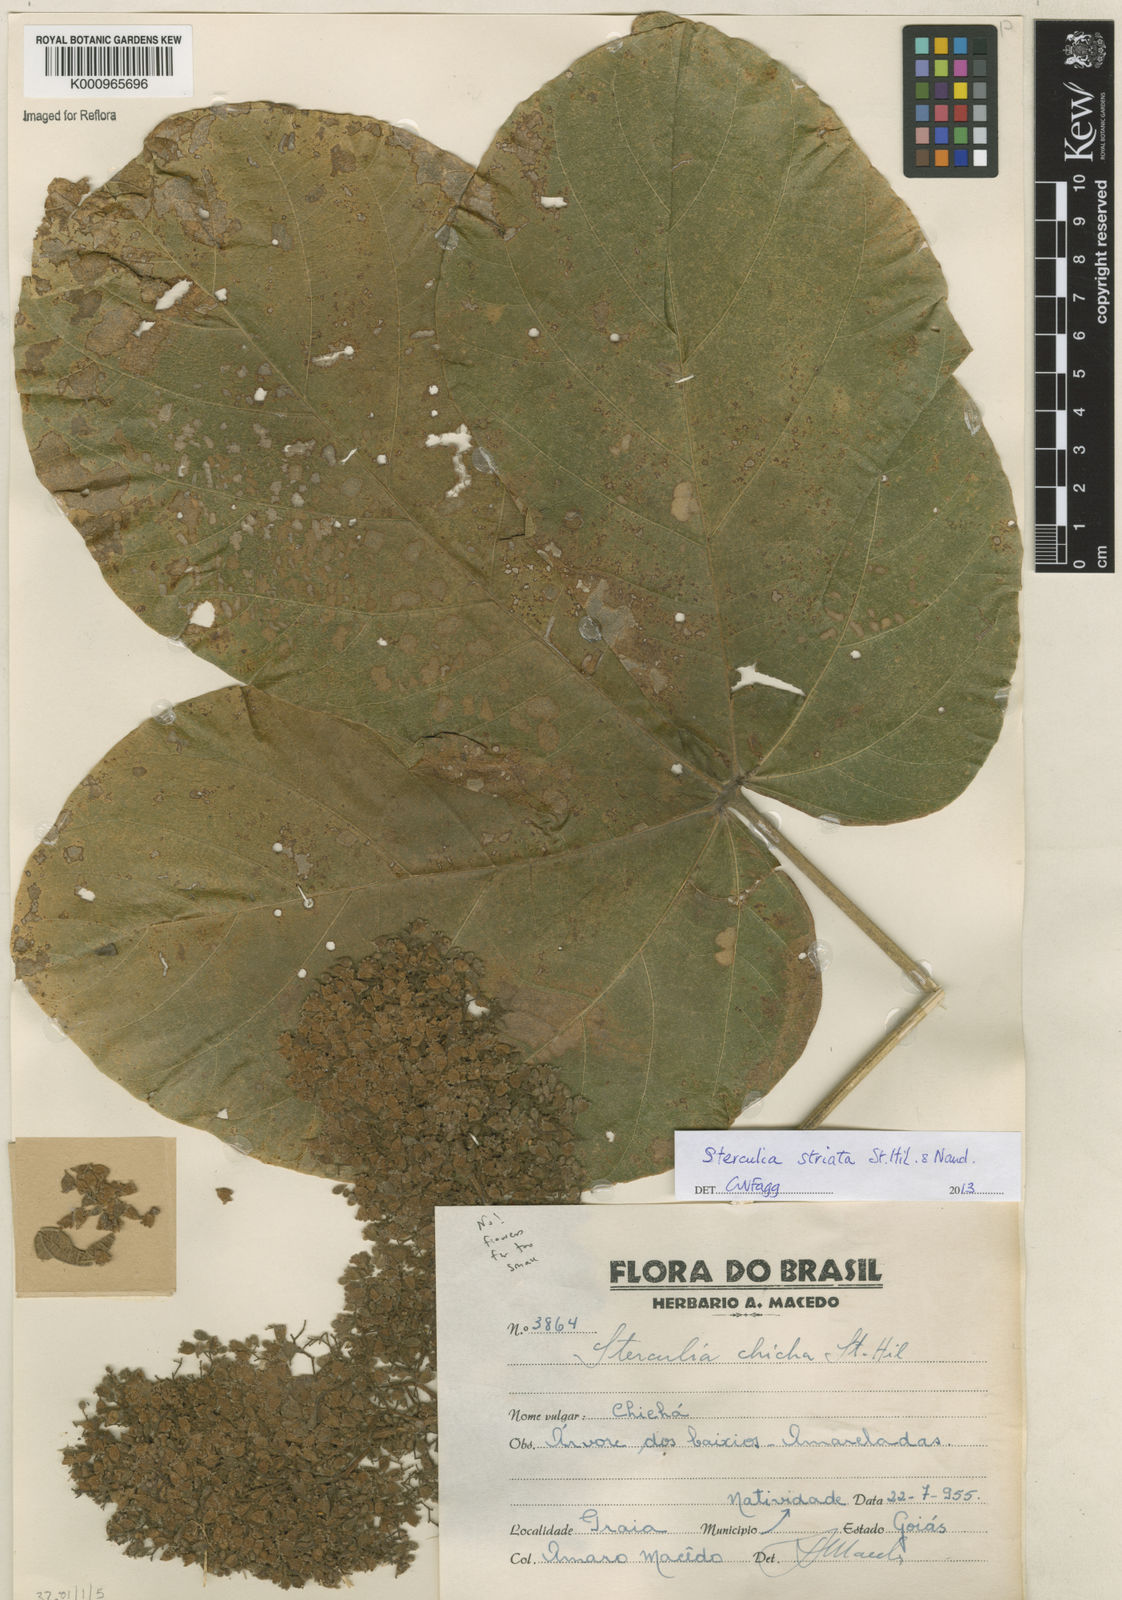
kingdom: Plantae
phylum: Tracheophyta
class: Magnoliopsida
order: Malvales
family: Malvaceae
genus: Sterculia
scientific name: Sterculia apetala
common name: Panama tree
